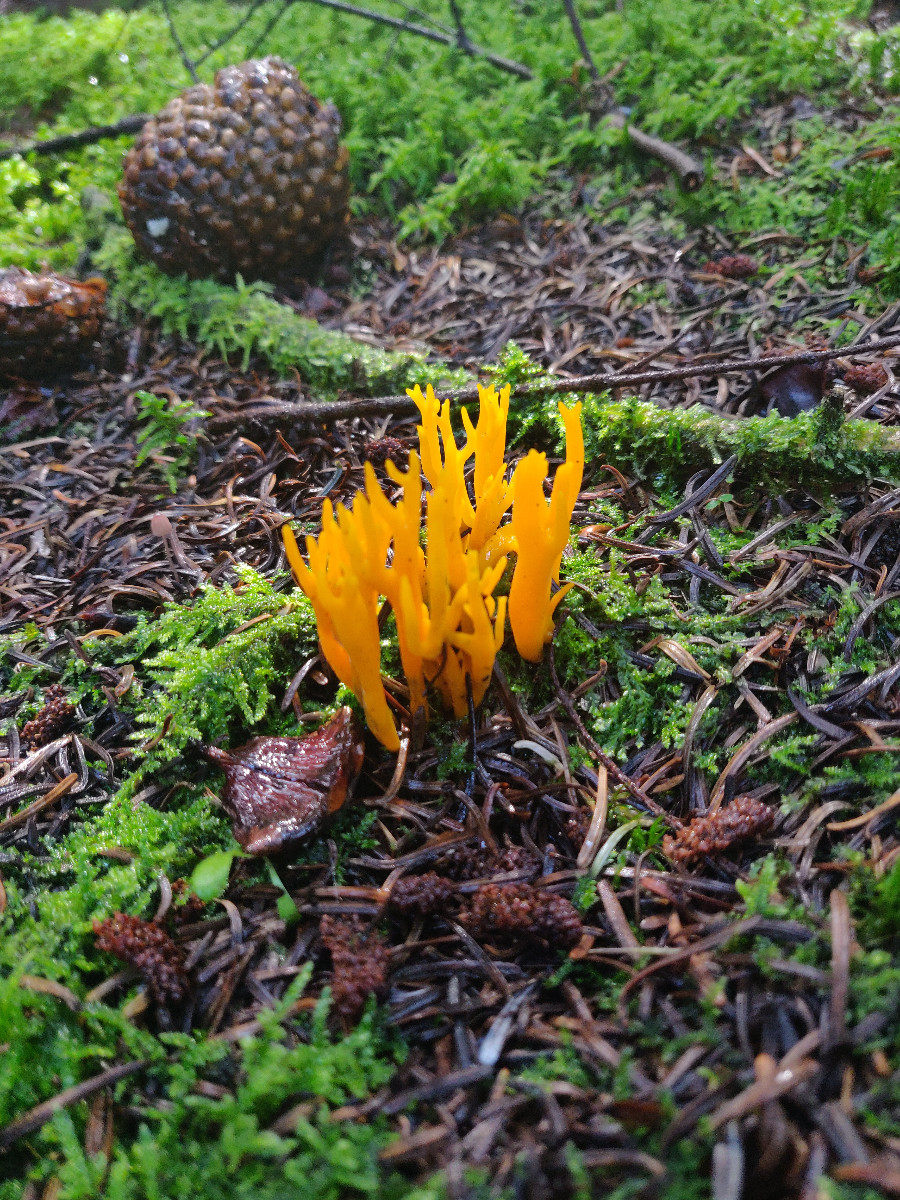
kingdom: Fungi
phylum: Basidiomycota
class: Dacrymycetes
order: Dacrymycetales
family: Dacrymycetaceae
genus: Calocera
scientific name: Calocera viscosa
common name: almindelig guldgaffel
